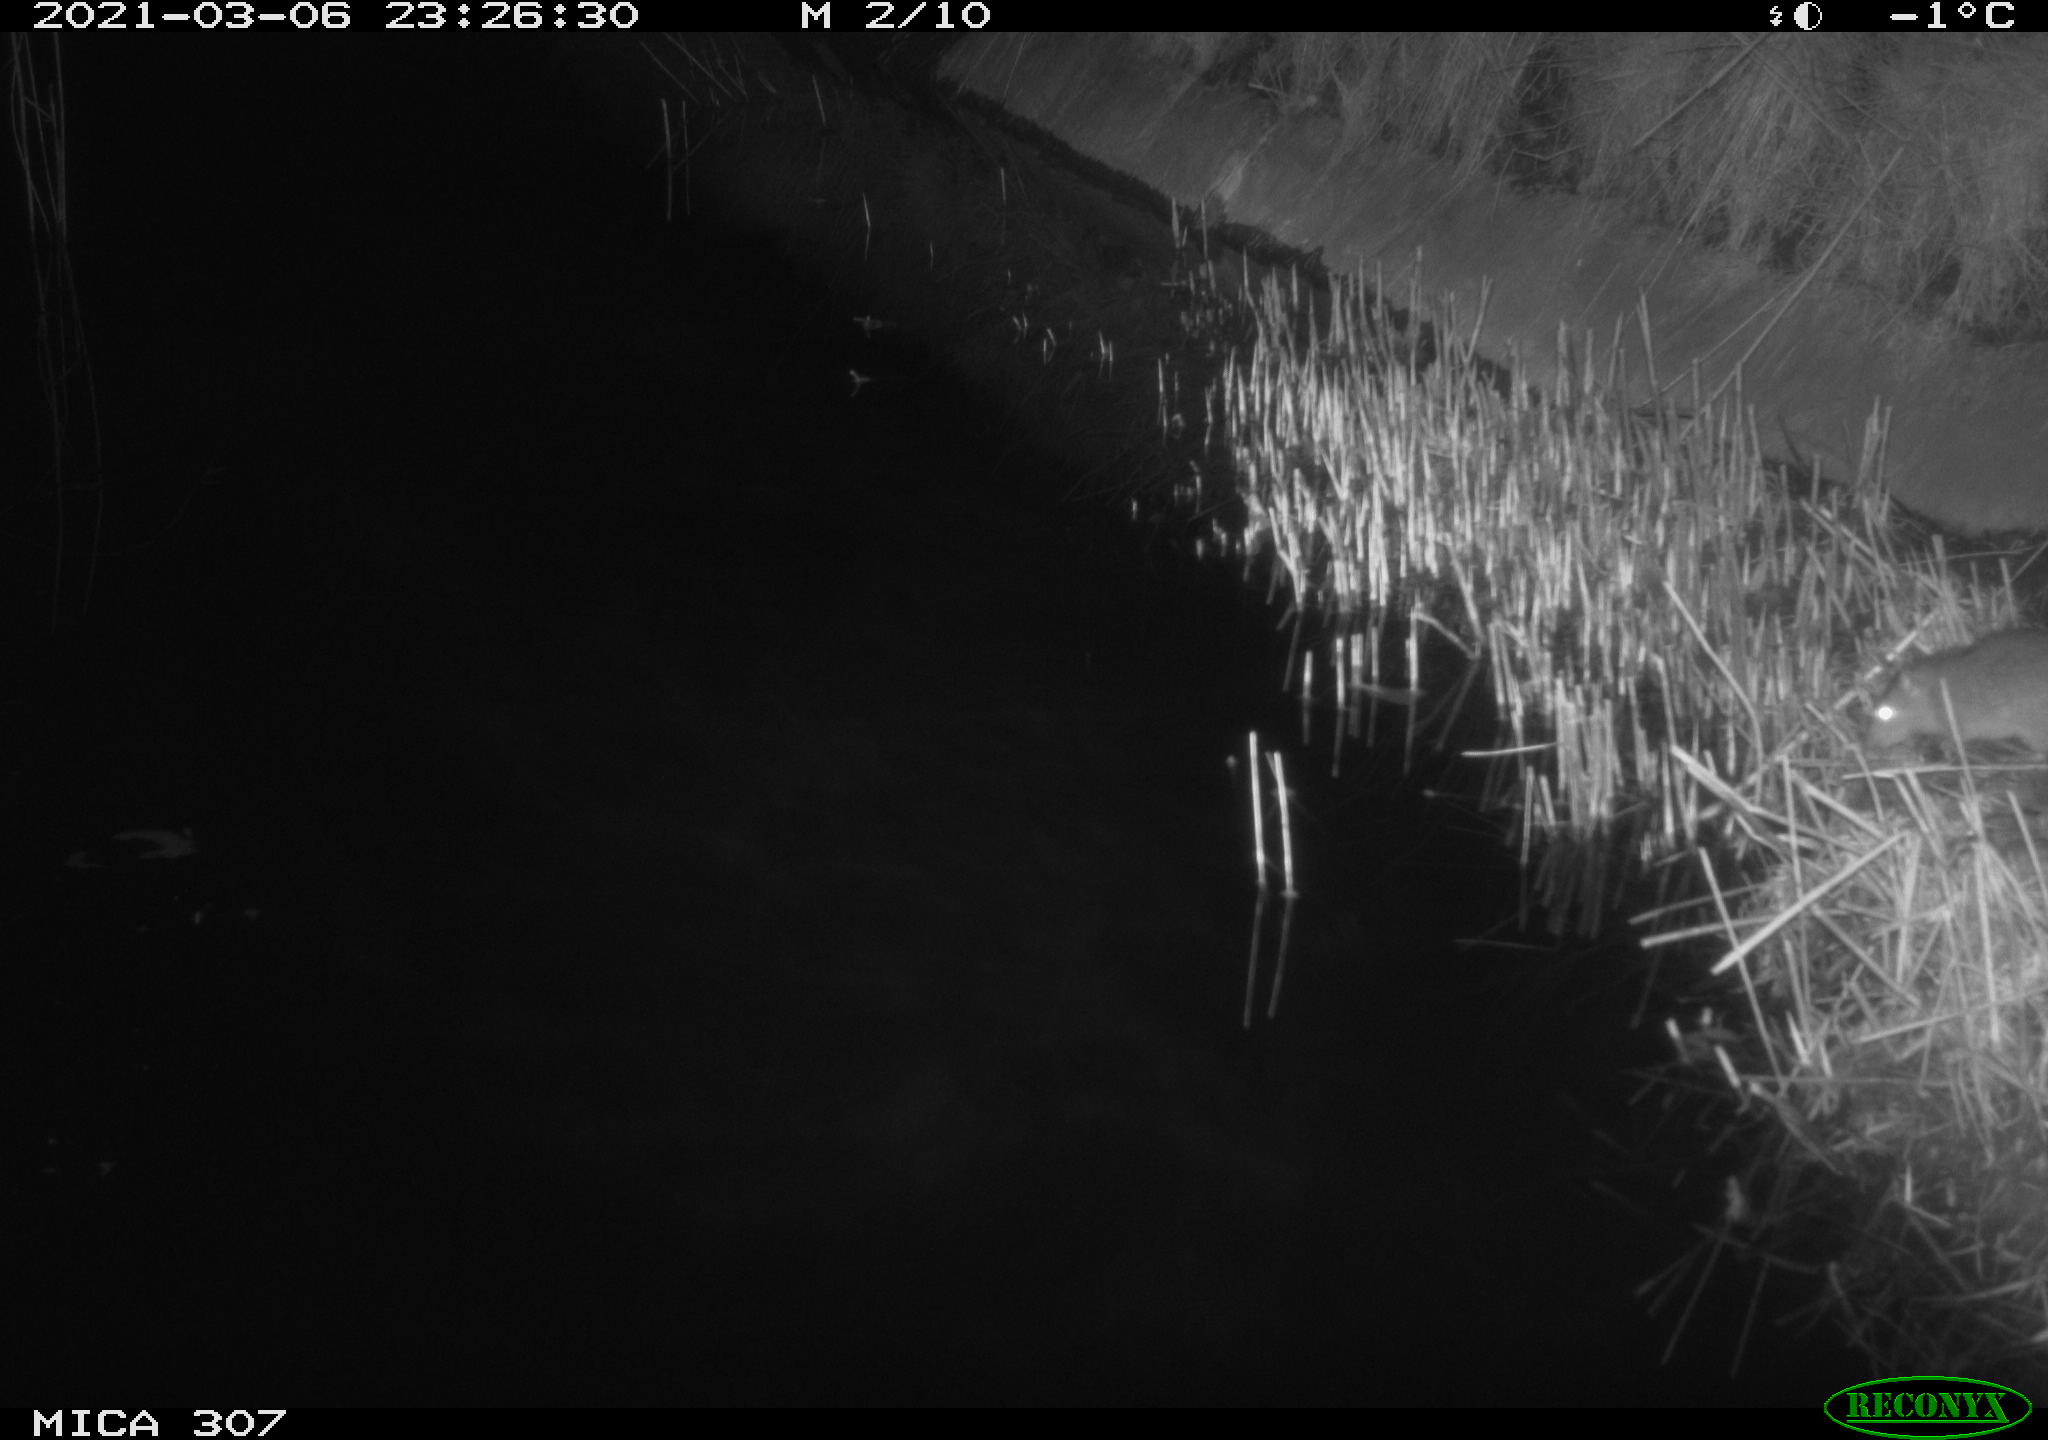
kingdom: Animalia
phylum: Chordata
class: Mammalia
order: Rodentia
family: Muridae
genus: Rattus
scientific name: Rattus norvegicus
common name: Brown rat
